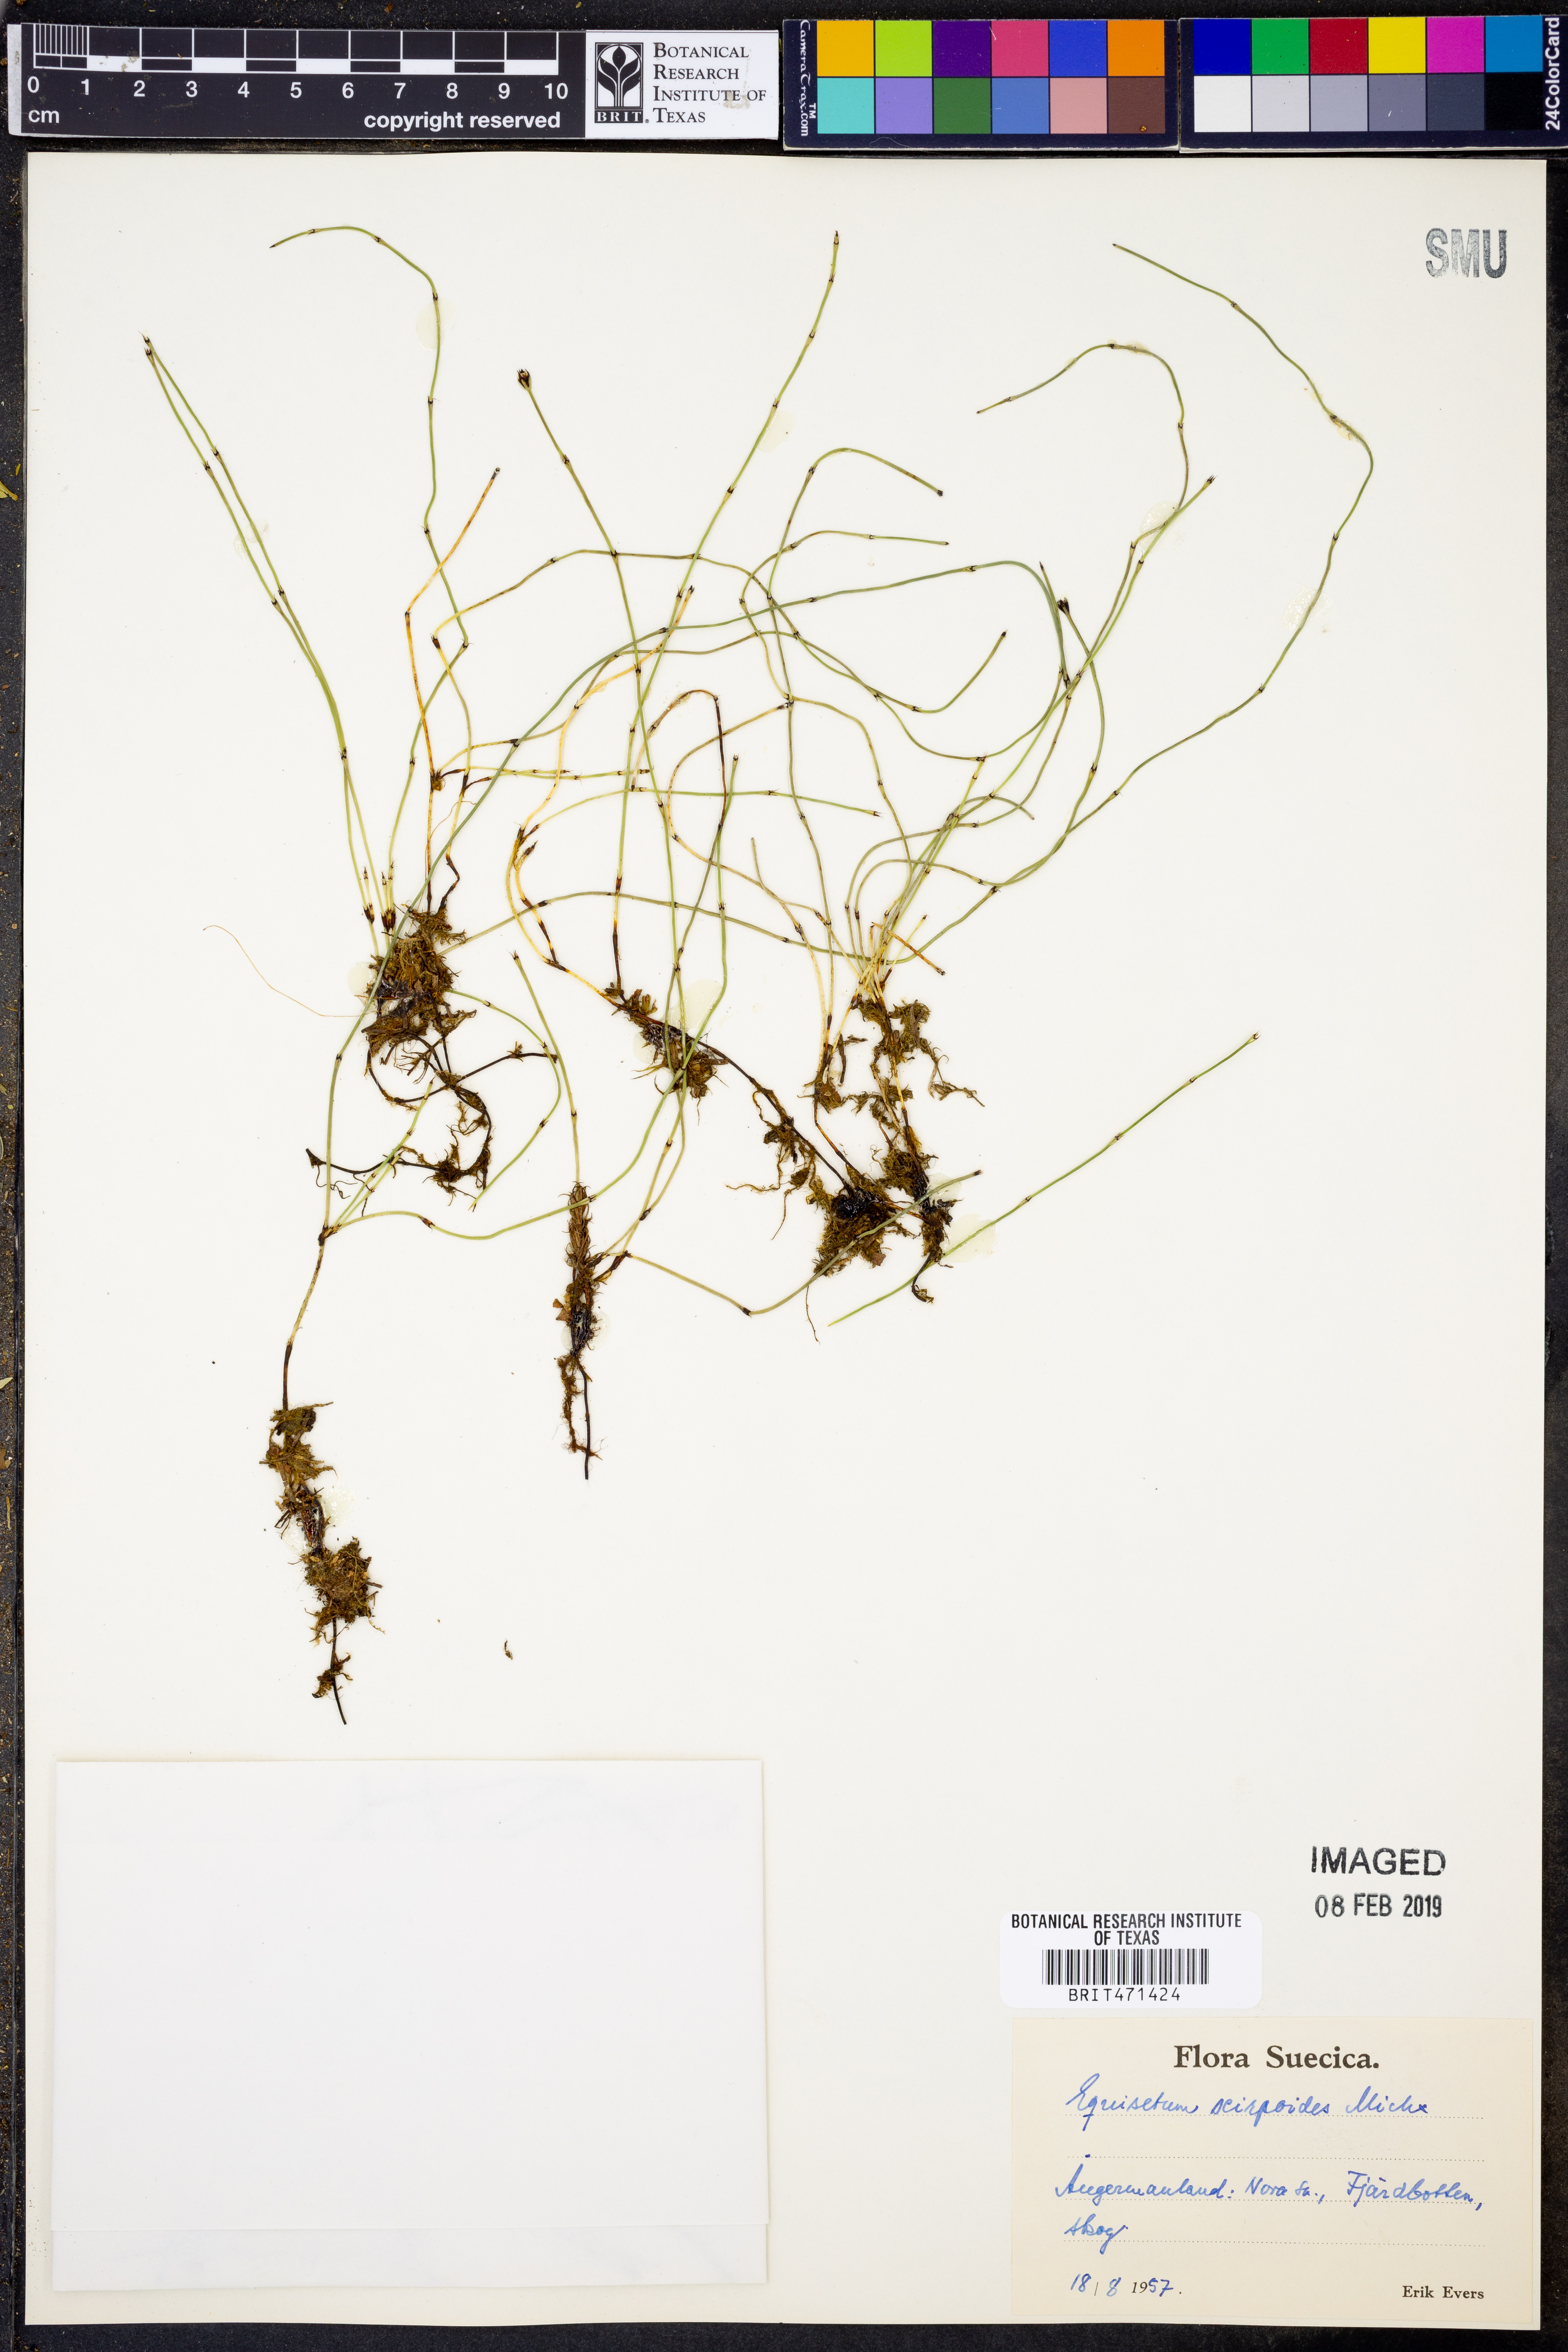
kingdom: Plantae
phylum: Tracheophyta
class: Polypodiopsida
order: Equisetales
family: Equisetaceae
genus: Equisetum
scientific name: Equisetum scirpoides
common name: Delicate horsetail
